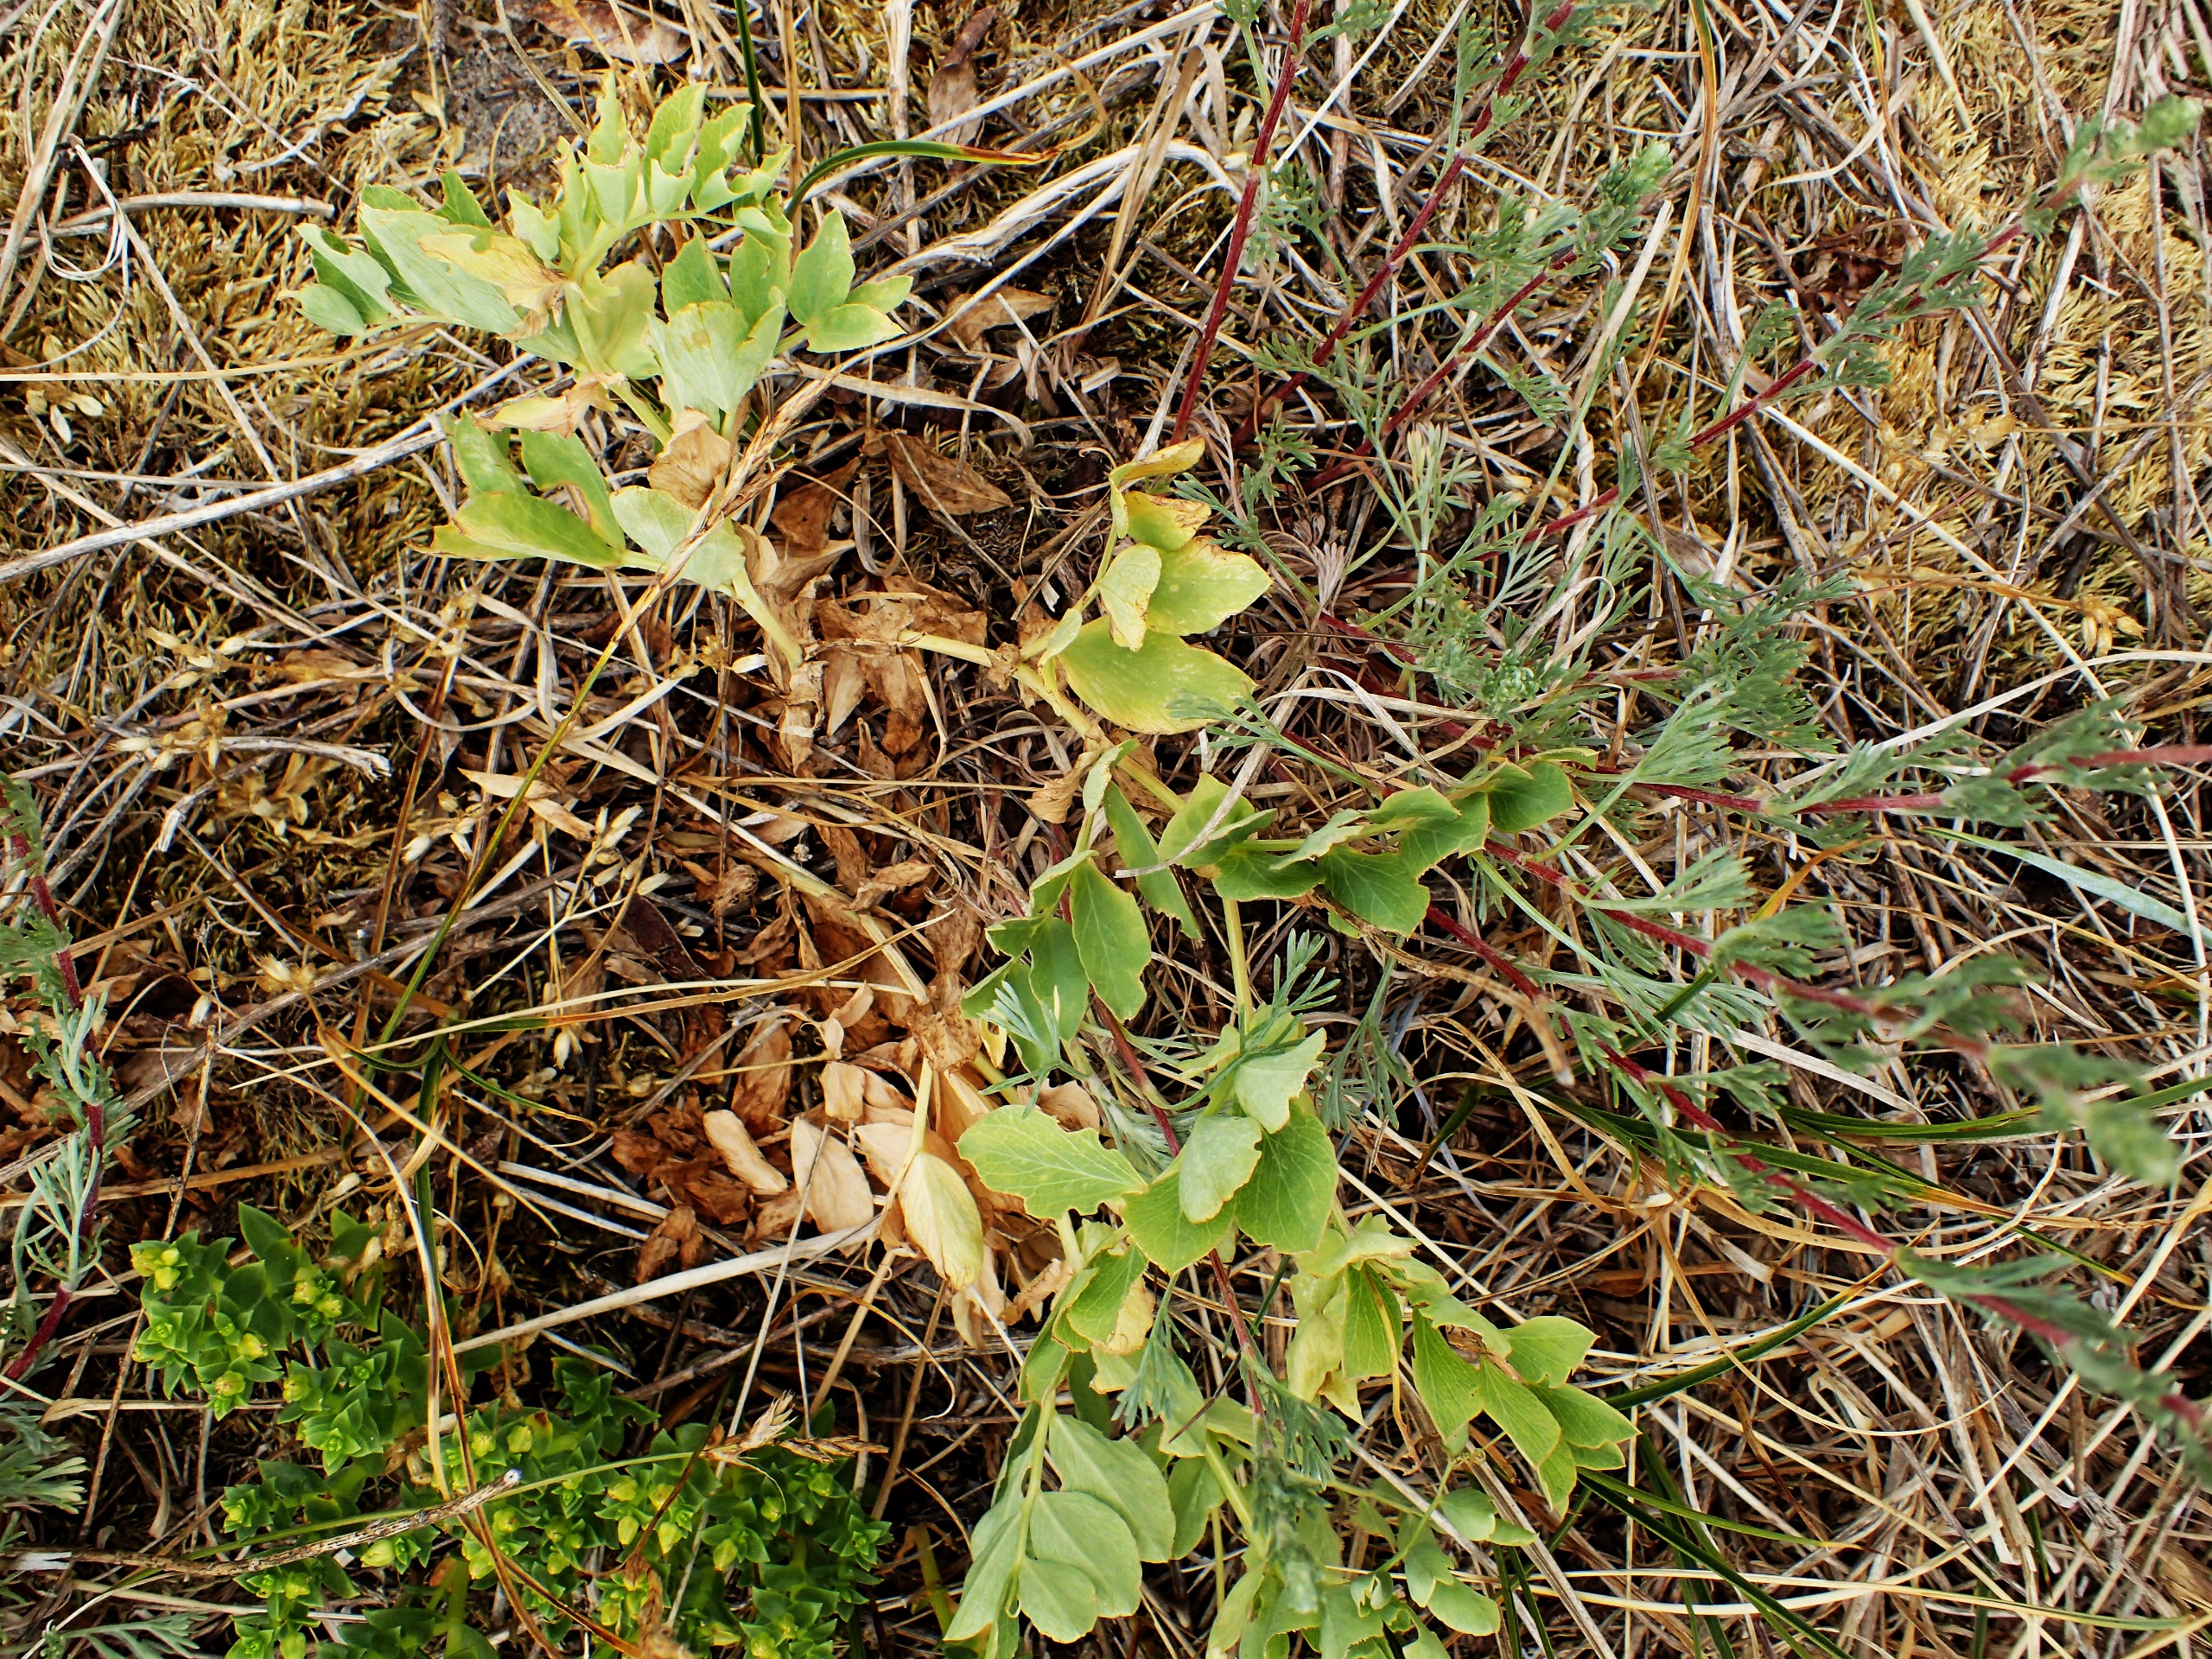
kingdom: Plantae
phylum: Tracheophyta
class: Magnoliopsida
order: Fabales
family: Fabaceae
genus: Lathyrus
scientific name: Lathyrus japonicus
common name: Strand-fladbælg
